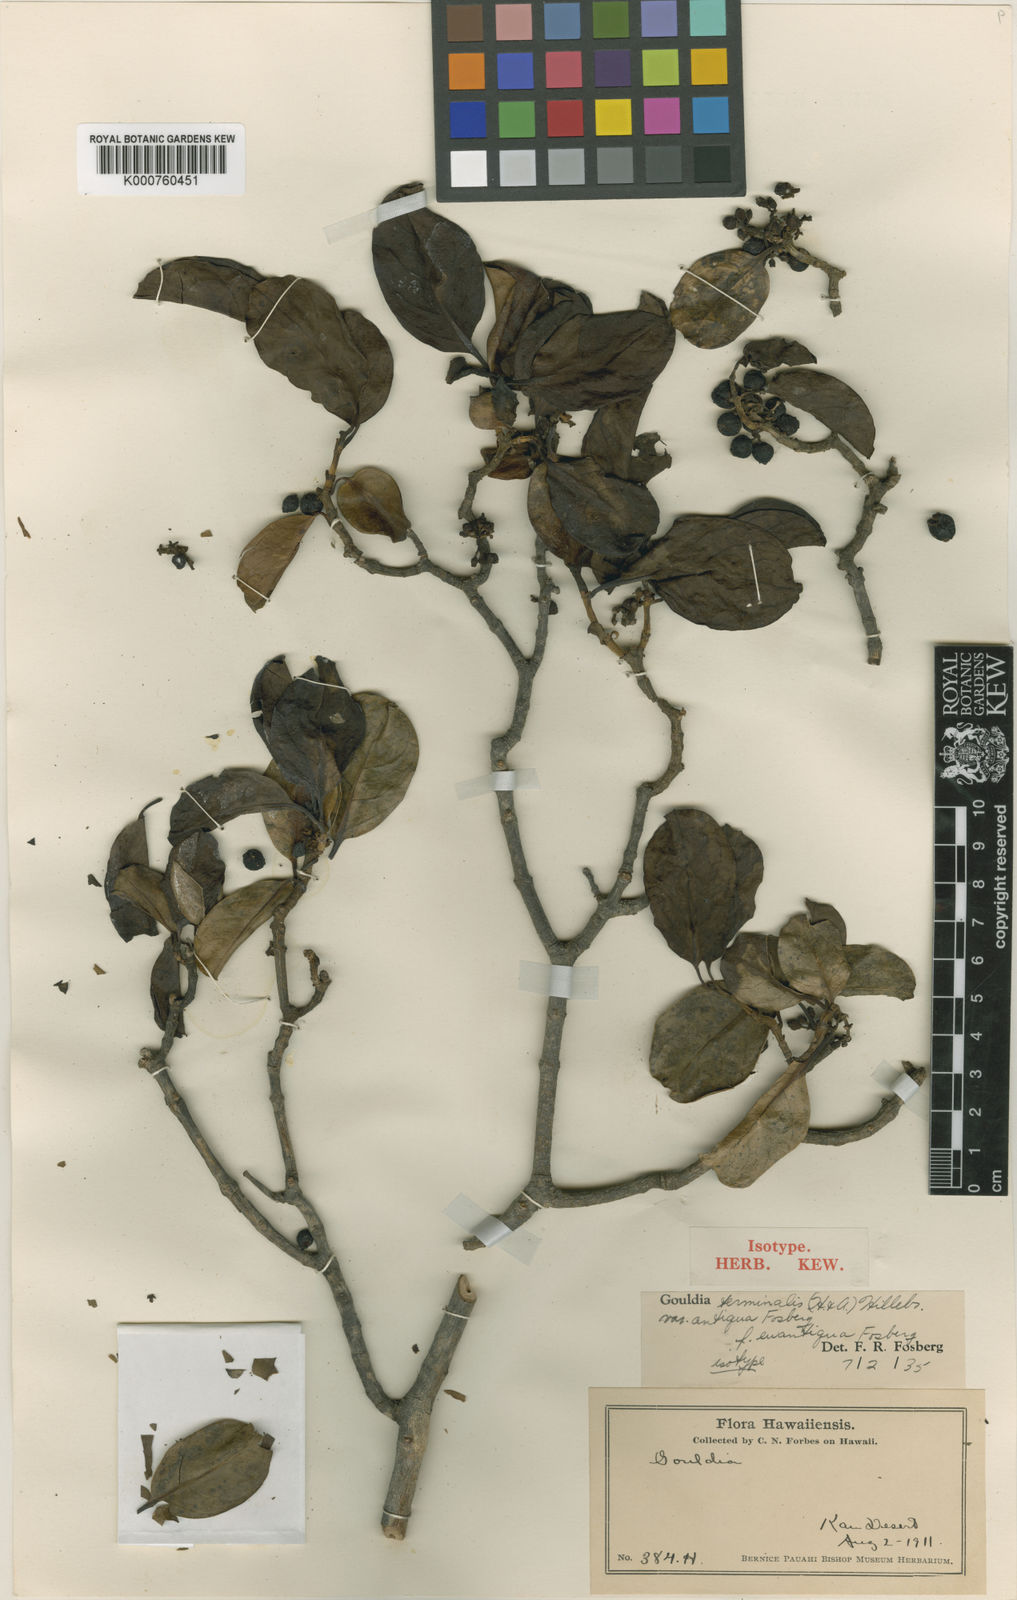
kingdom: Plantae
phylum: Tracheophyta
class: Magnoliopsida
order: Gentianales
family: Rubiaceae
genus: Kadua
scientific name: Kadua affinis
